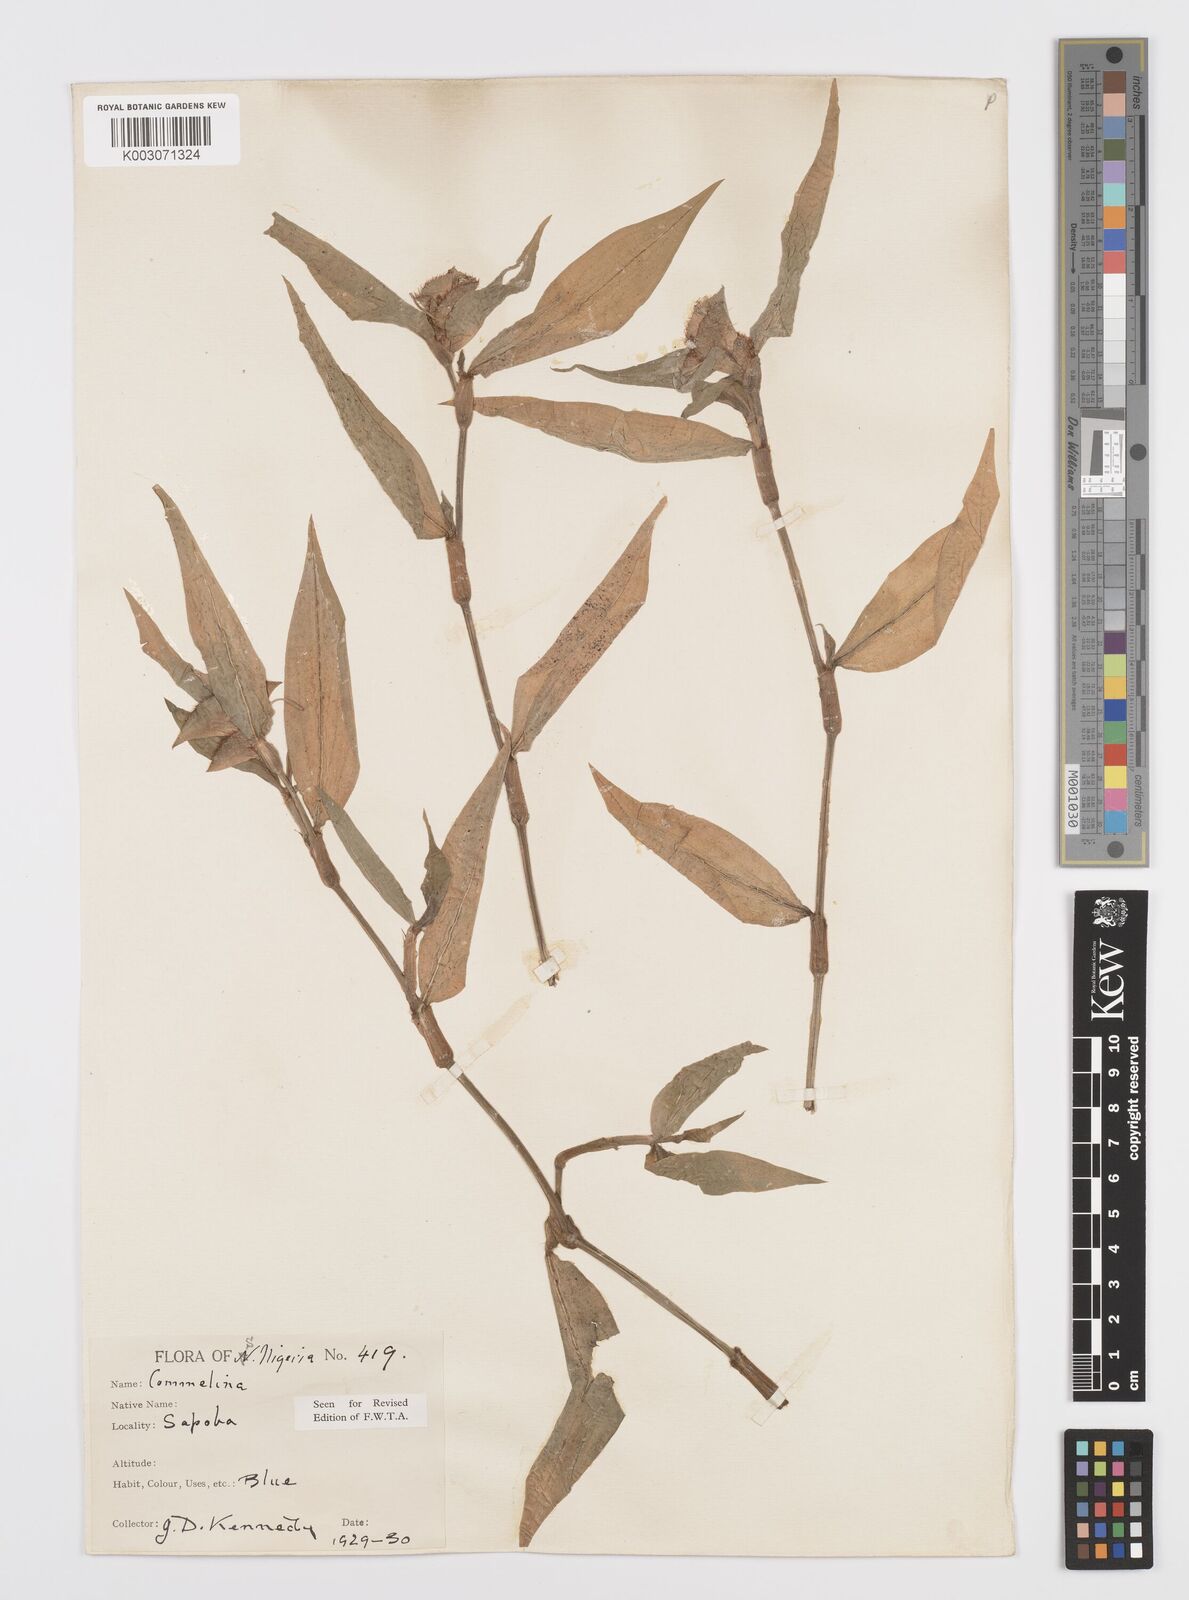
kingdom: Plantae
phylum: Tracheophyta
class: Liliopsida
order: Commelinales
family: Commelinaceae
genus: Commelina
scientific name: Commelina capitata
